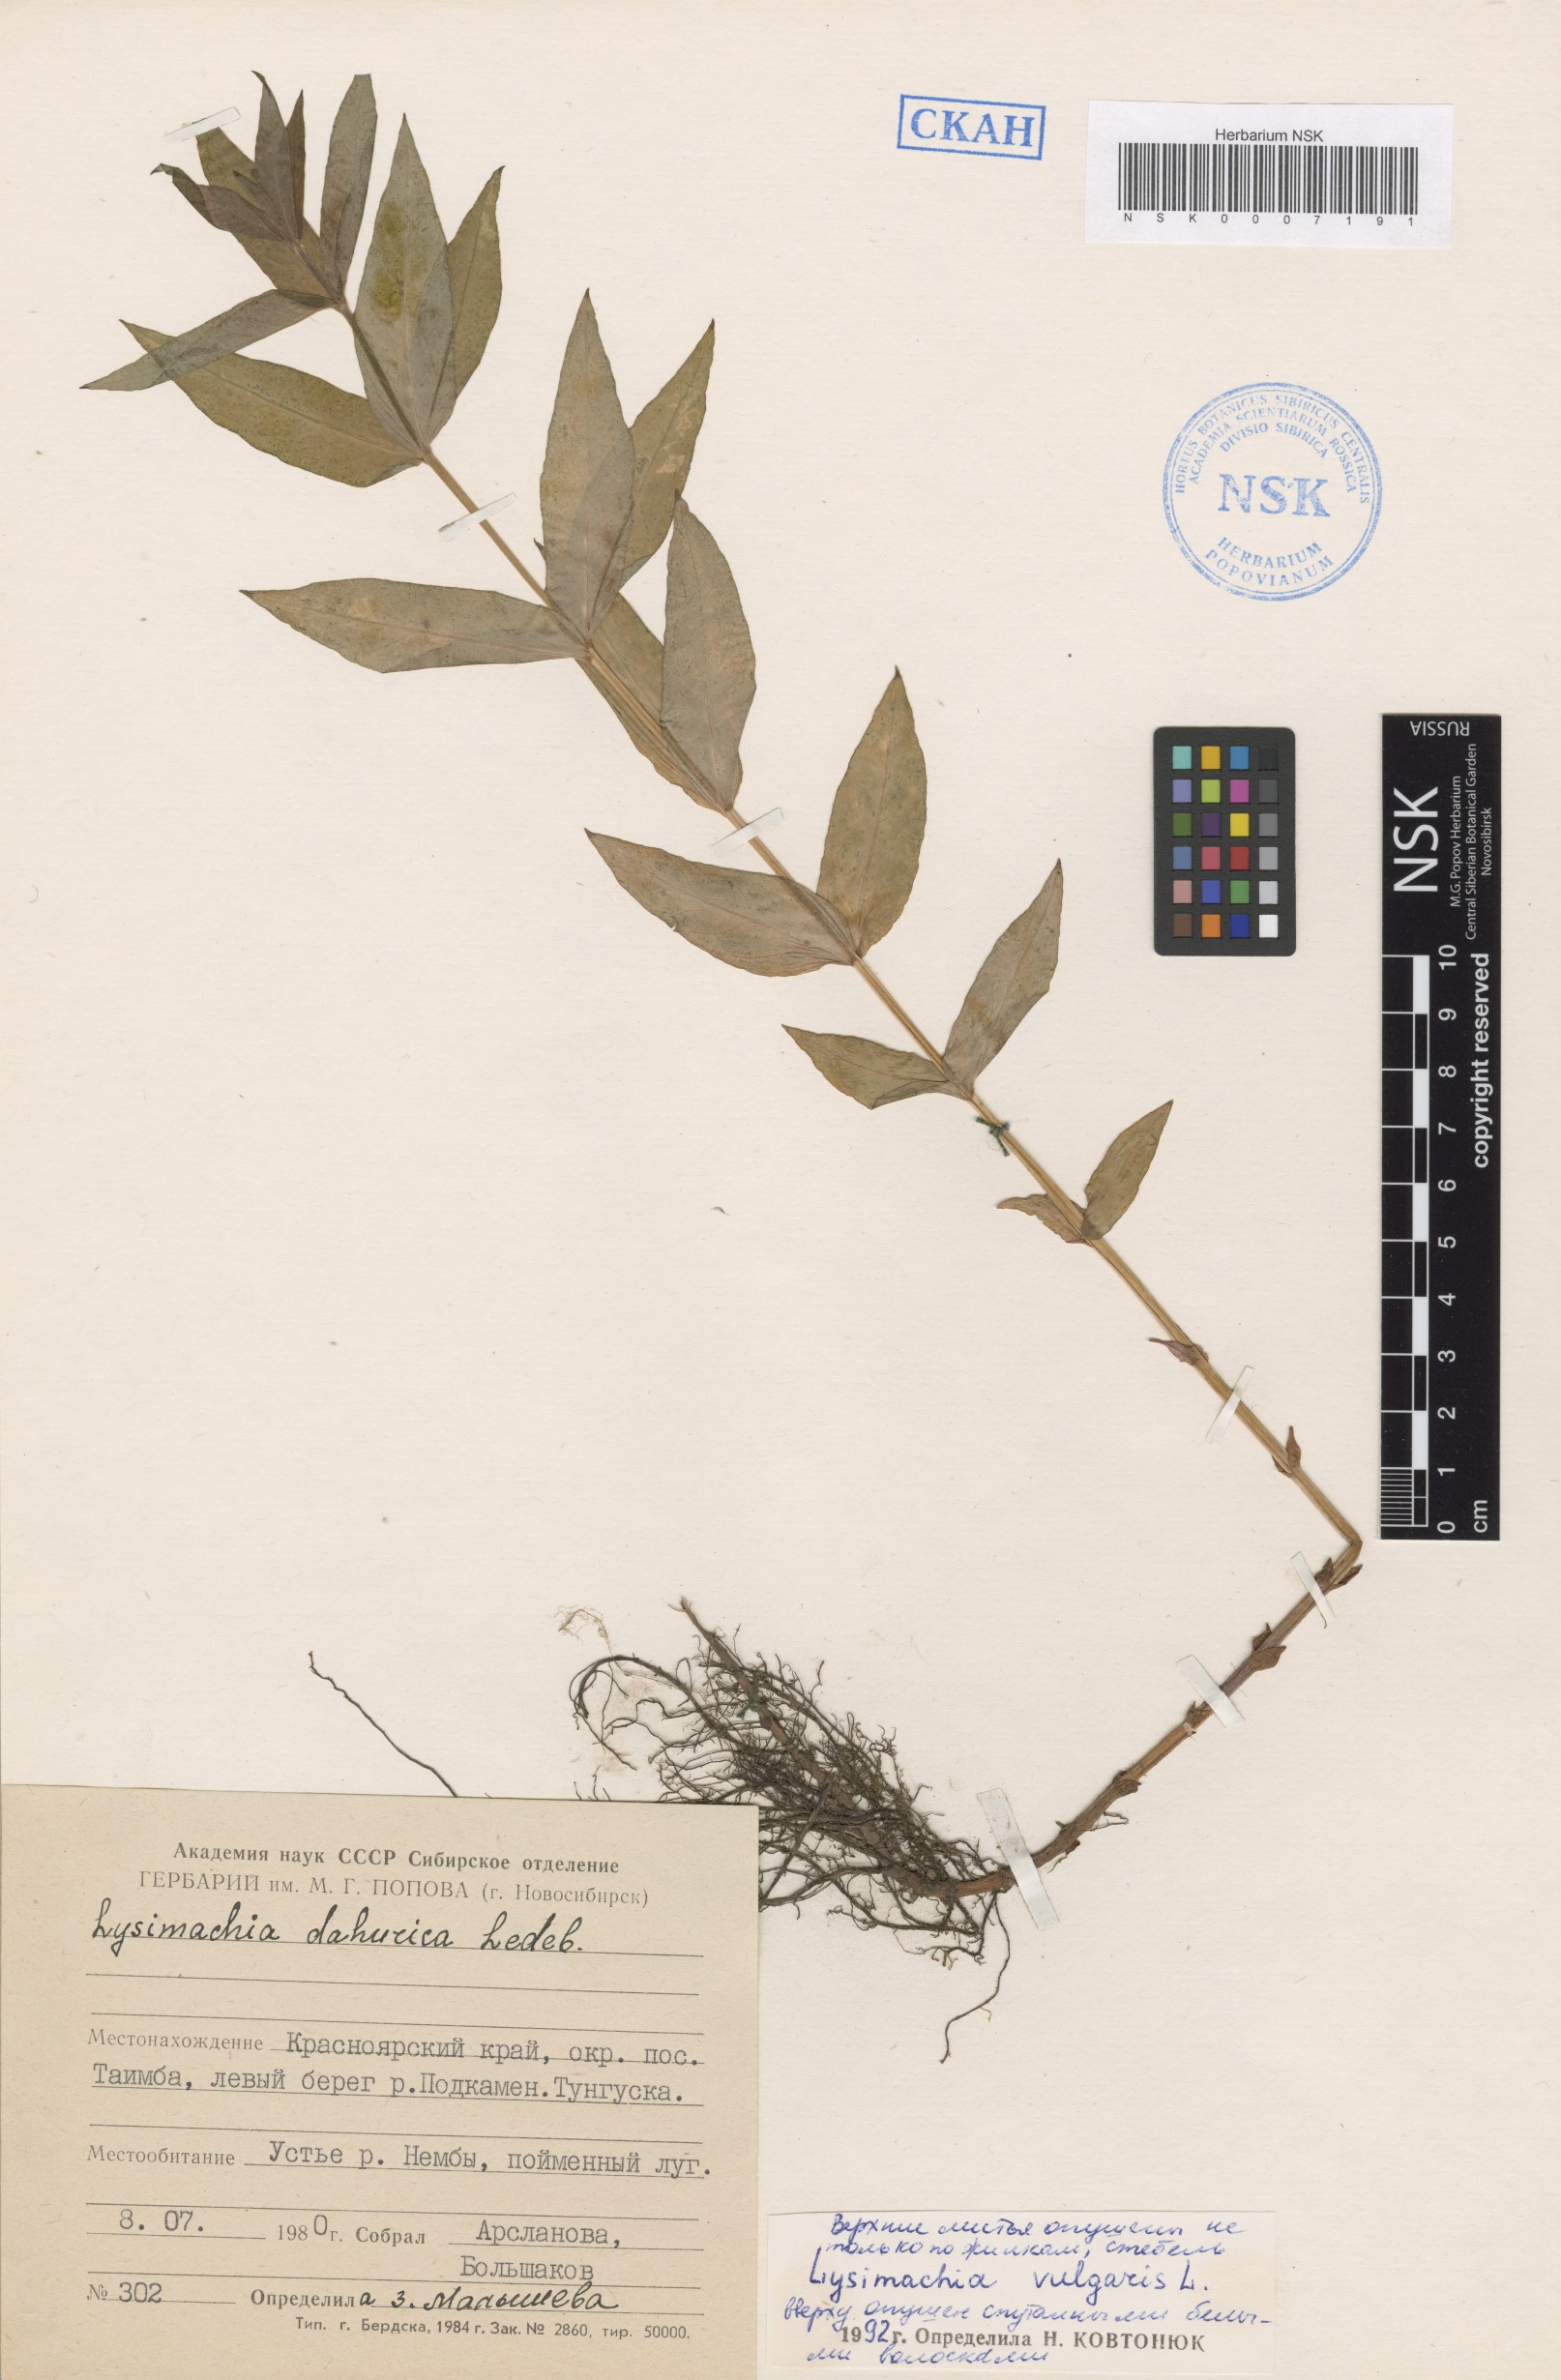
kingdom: Plantae
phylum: Tracheophyta
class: Magnoliopsida
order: Ericales
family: Primulaceae
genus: Lysimachia
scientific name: Lysimachia vulgaris
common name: Yellow loosestrife
